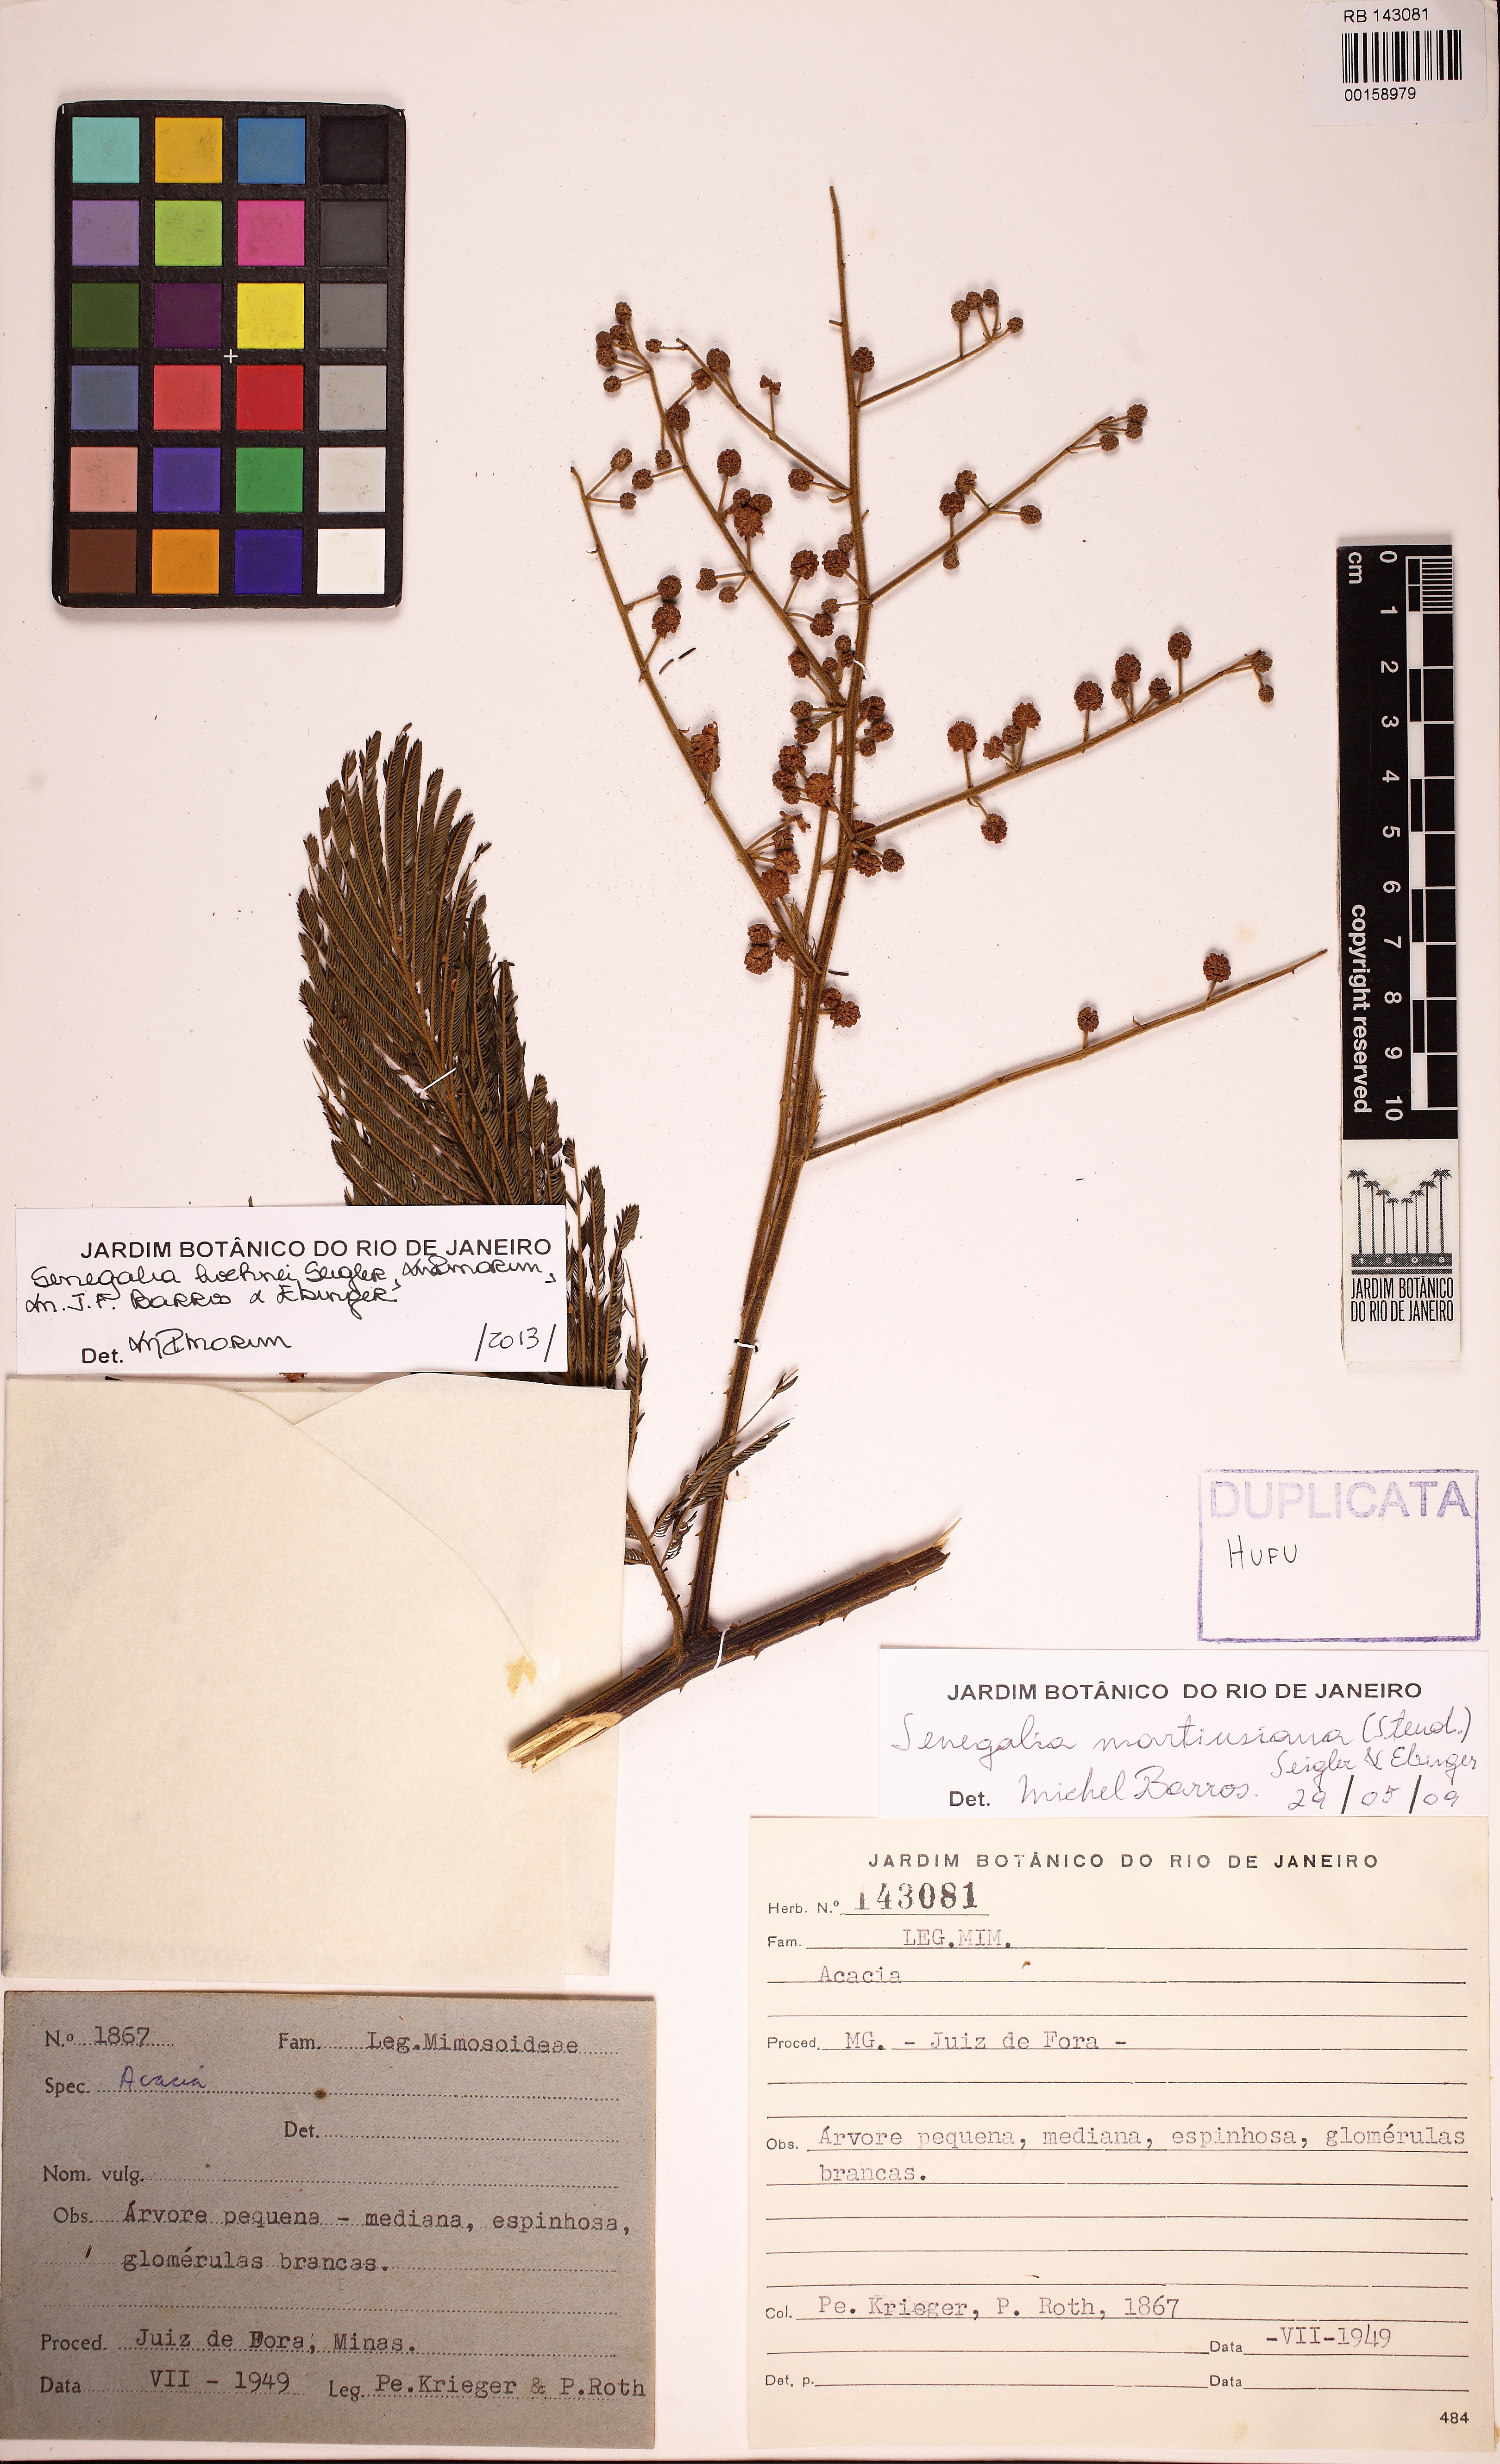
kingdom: Plantae
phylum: Tracheophyta
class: Magnoliopsida
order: Fabales
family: Fabaceae
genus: Senegalia
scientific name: Senegalia hoehnei
